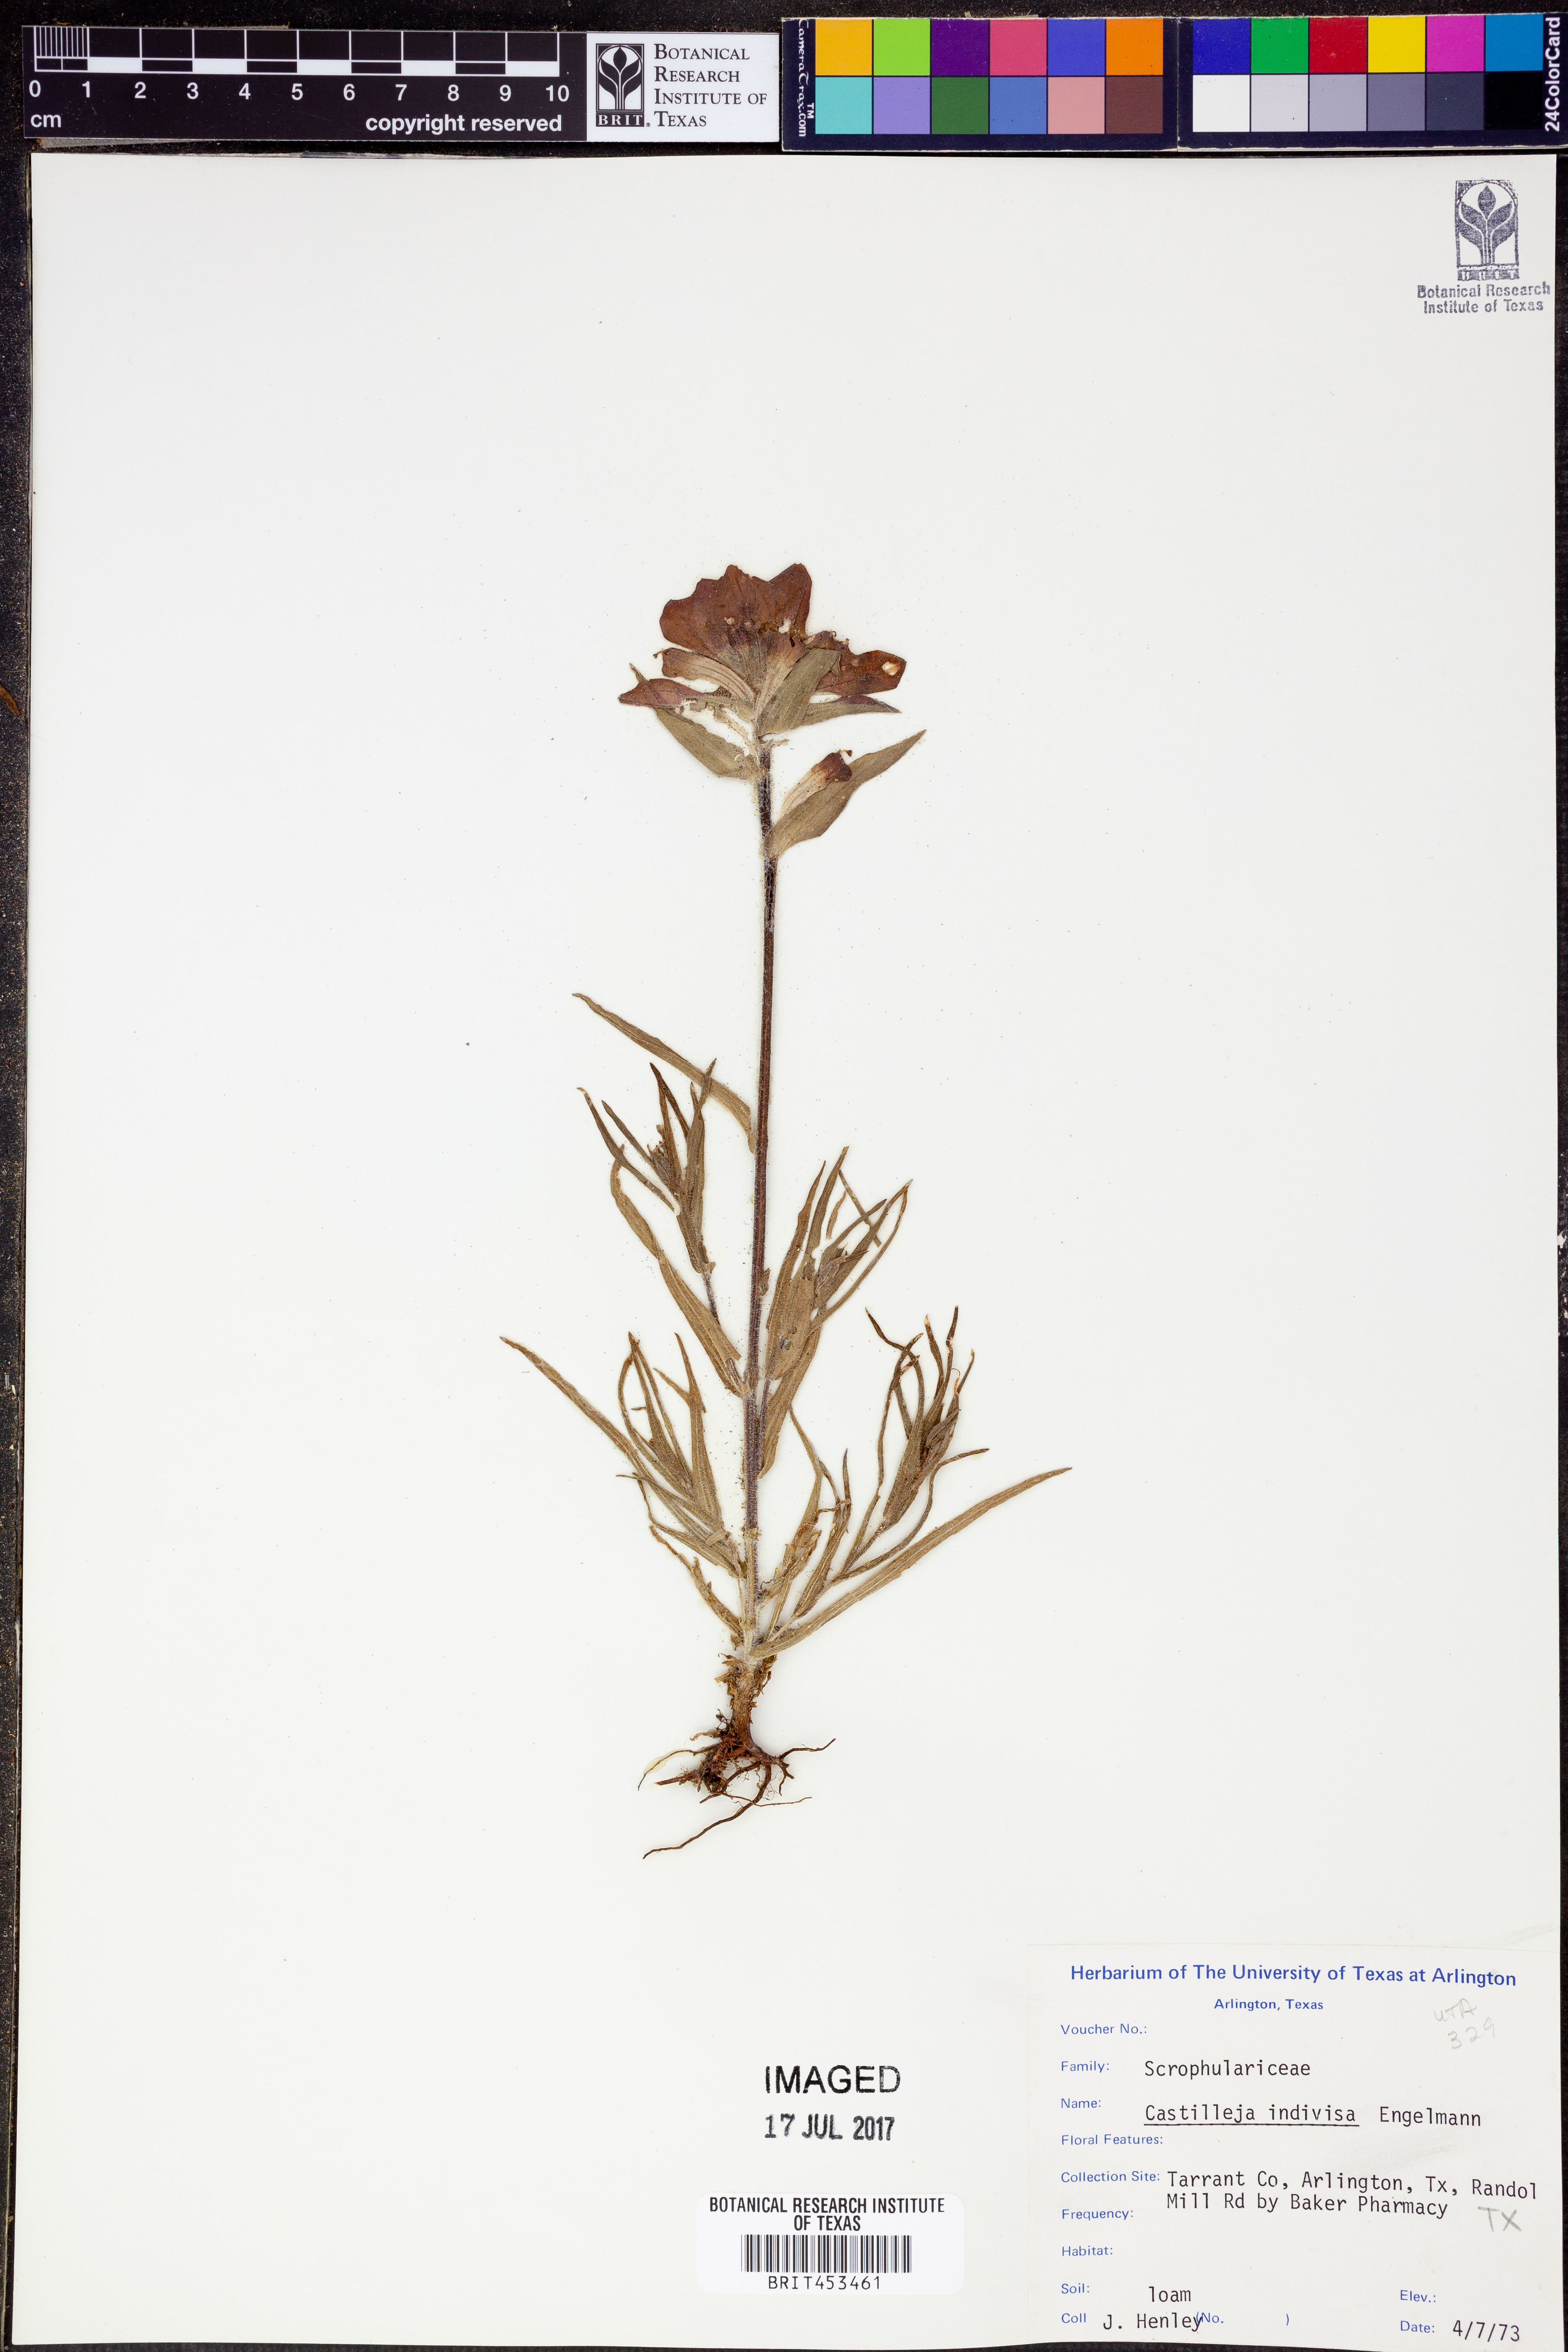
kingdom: Plantae
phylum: Tracheophyta
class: Magnoliopsida
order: Lamiales
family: Orobanchaceae
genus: Castilleja
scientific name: Castilleja indivisa
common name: Texas paintbrush
